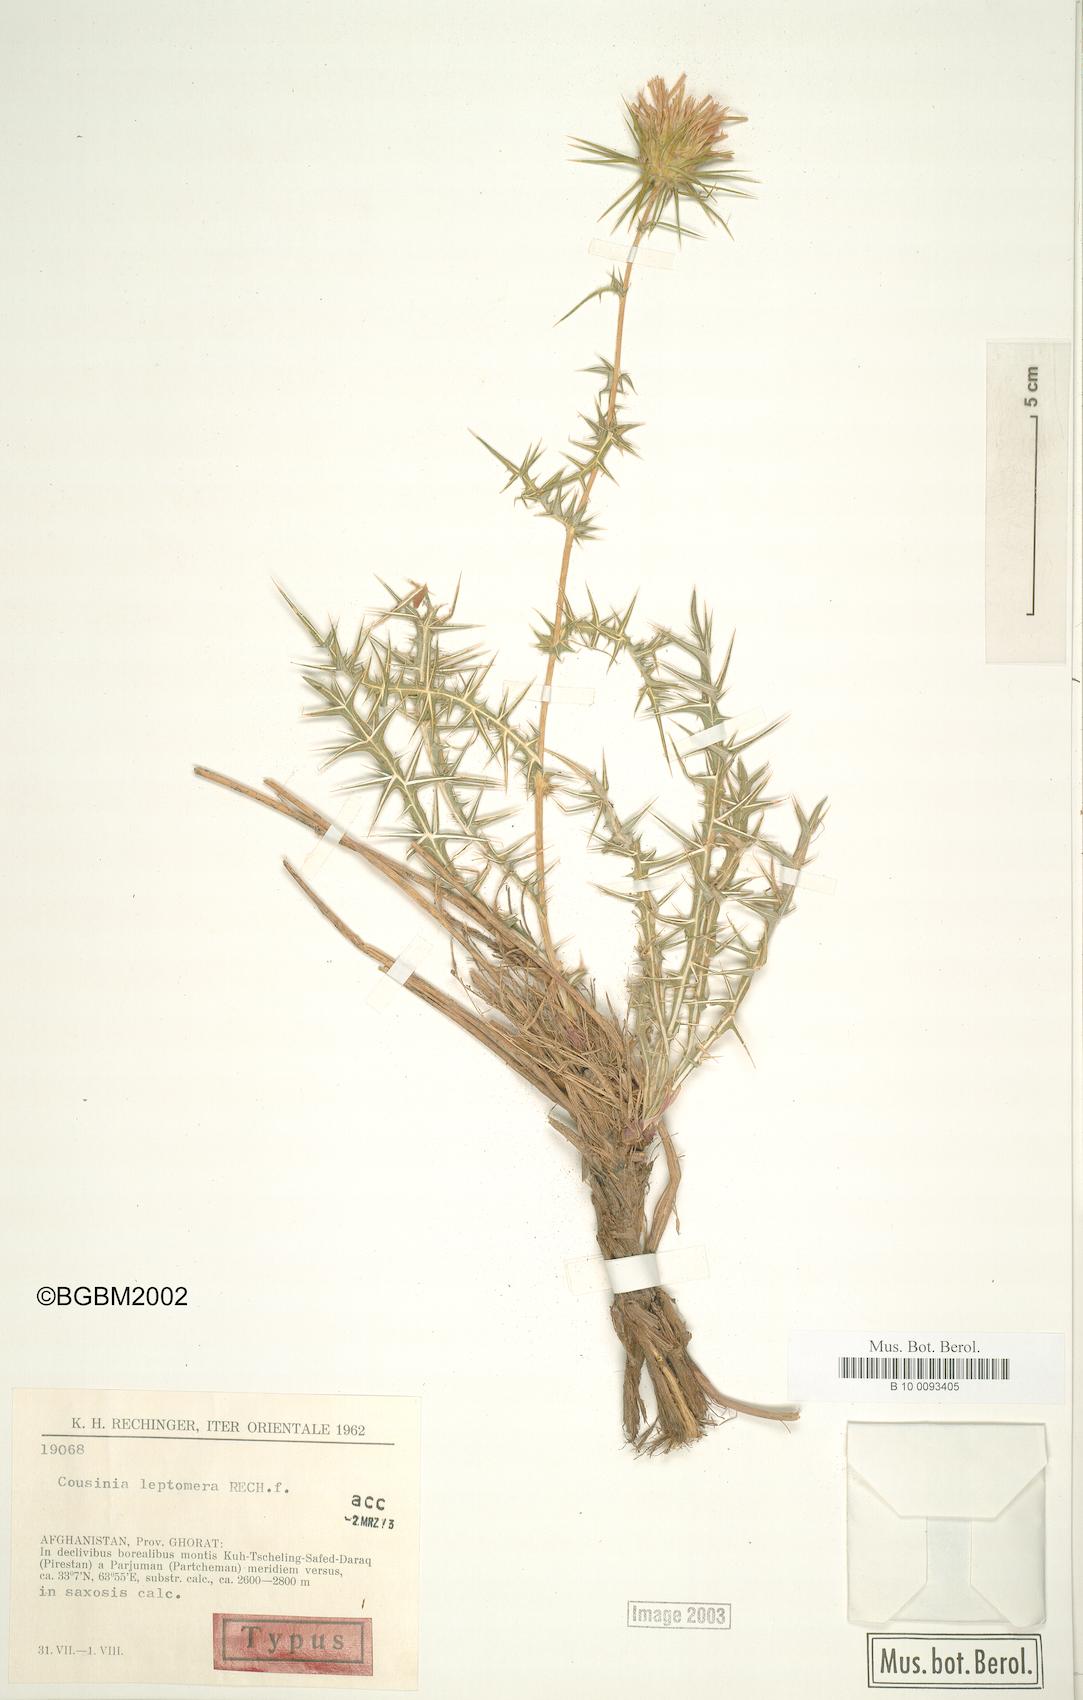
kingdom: Plantae
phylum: Tracheophyta
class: Magnoliopsida
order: Asterales
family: Asteraceae
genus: Cousinia
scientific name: Cousinia leptomera
